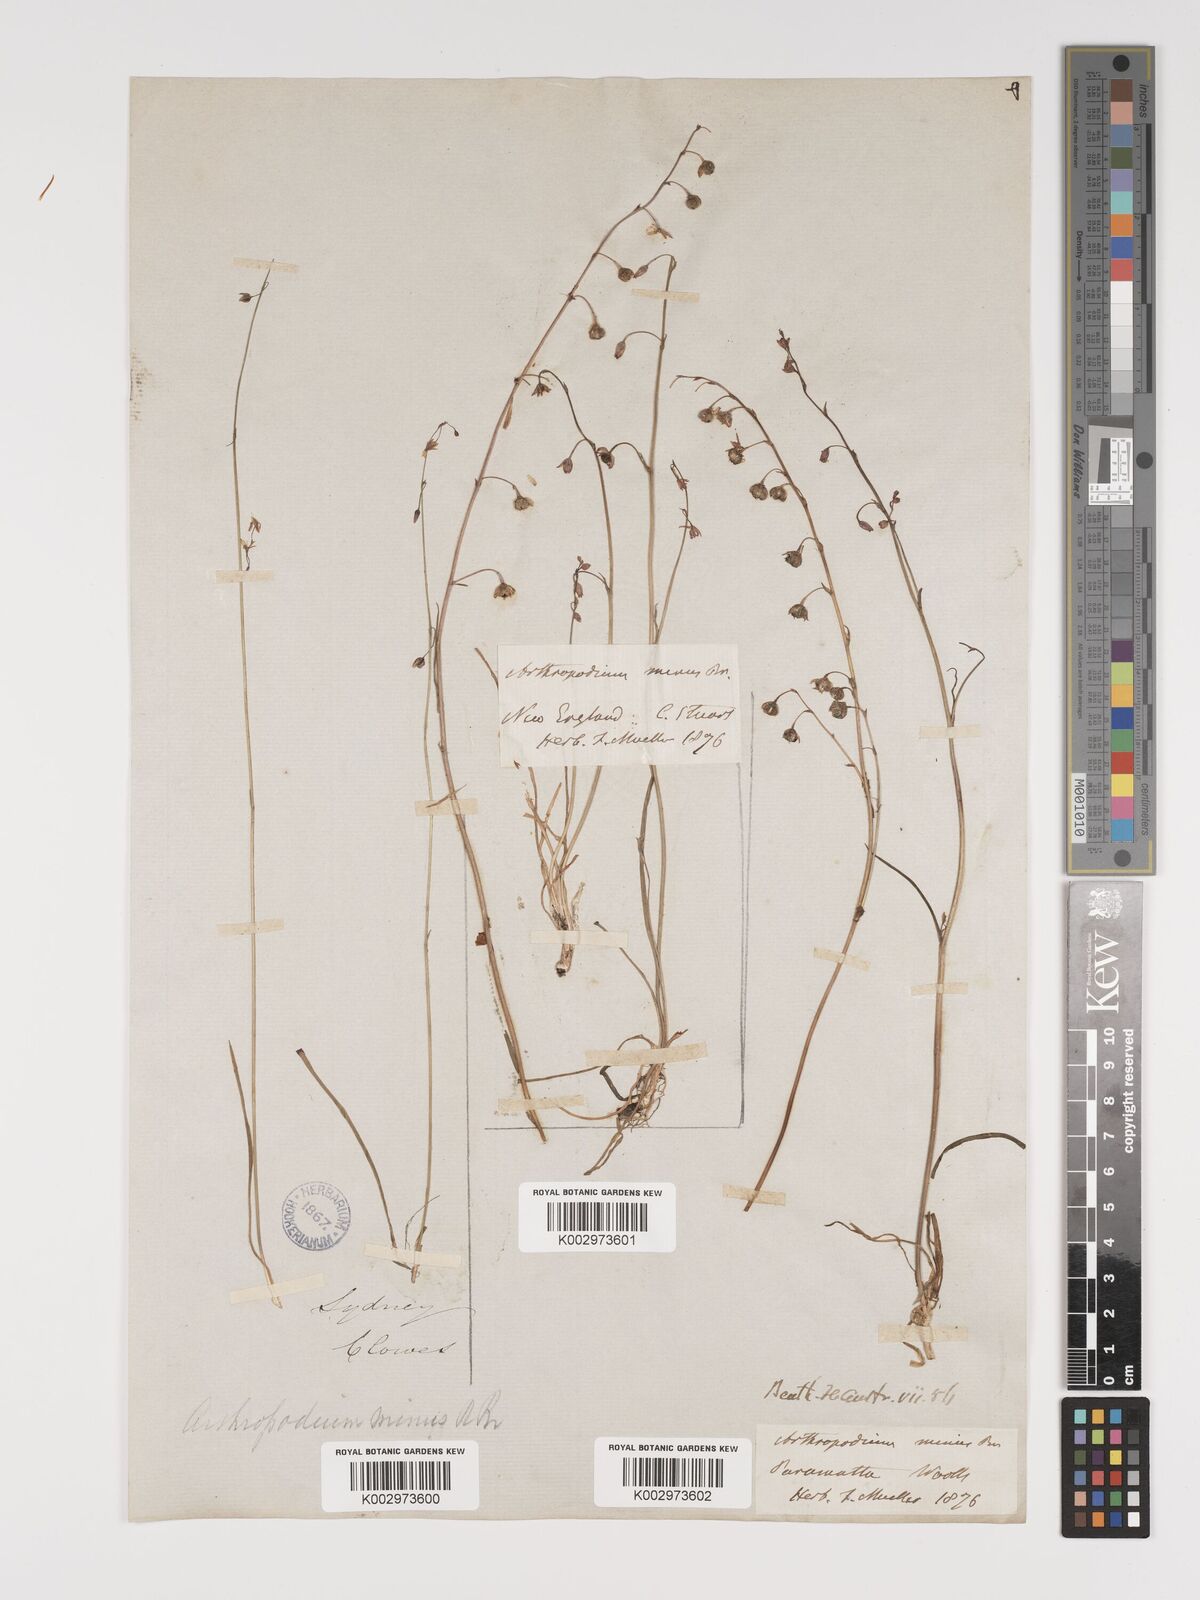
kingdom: Plantae
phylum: Tracheophyta
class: Liliopsida
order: Asparagales
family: Asparagaceae
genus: Arthropodium
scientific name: Arthropodium minus
